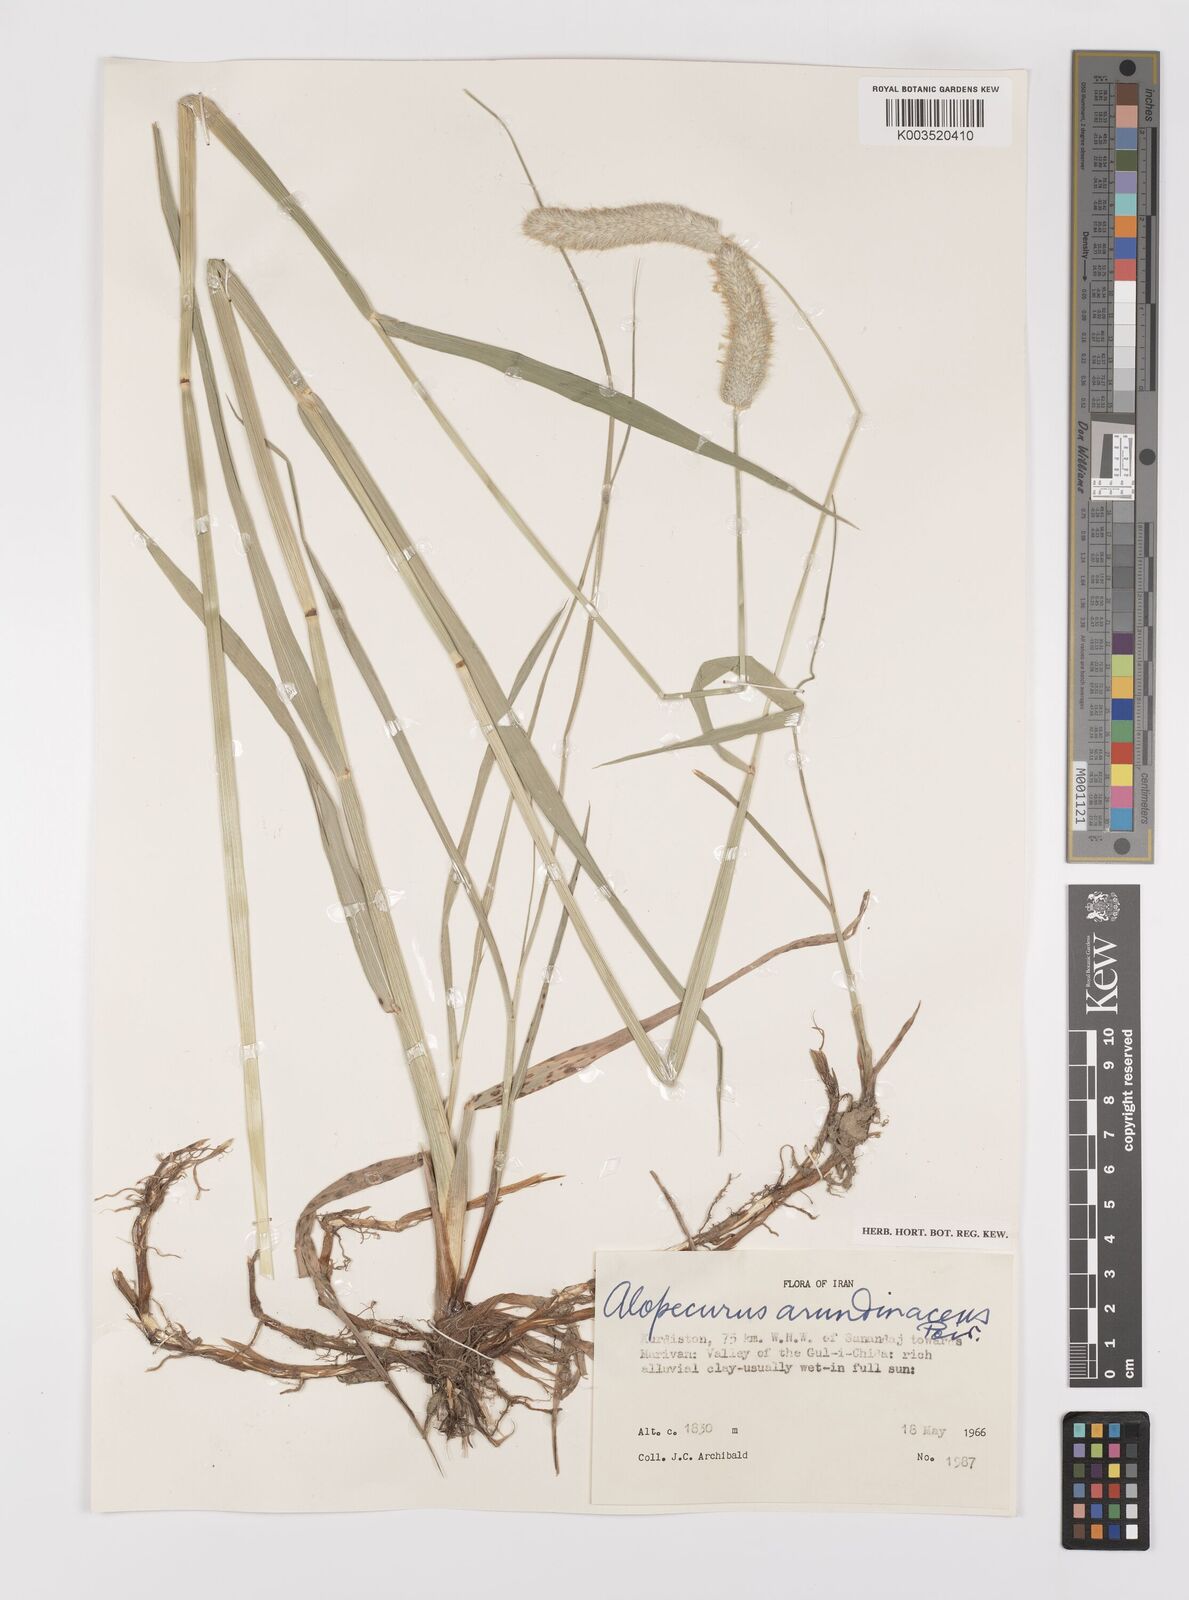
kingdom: Plantae
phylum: Tracheophyta
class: Liliopsida
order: Poales
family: Poaceae
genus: Alopecurus
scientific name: Alopecurus arundinaceus
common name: Creeping meadow foxtail
